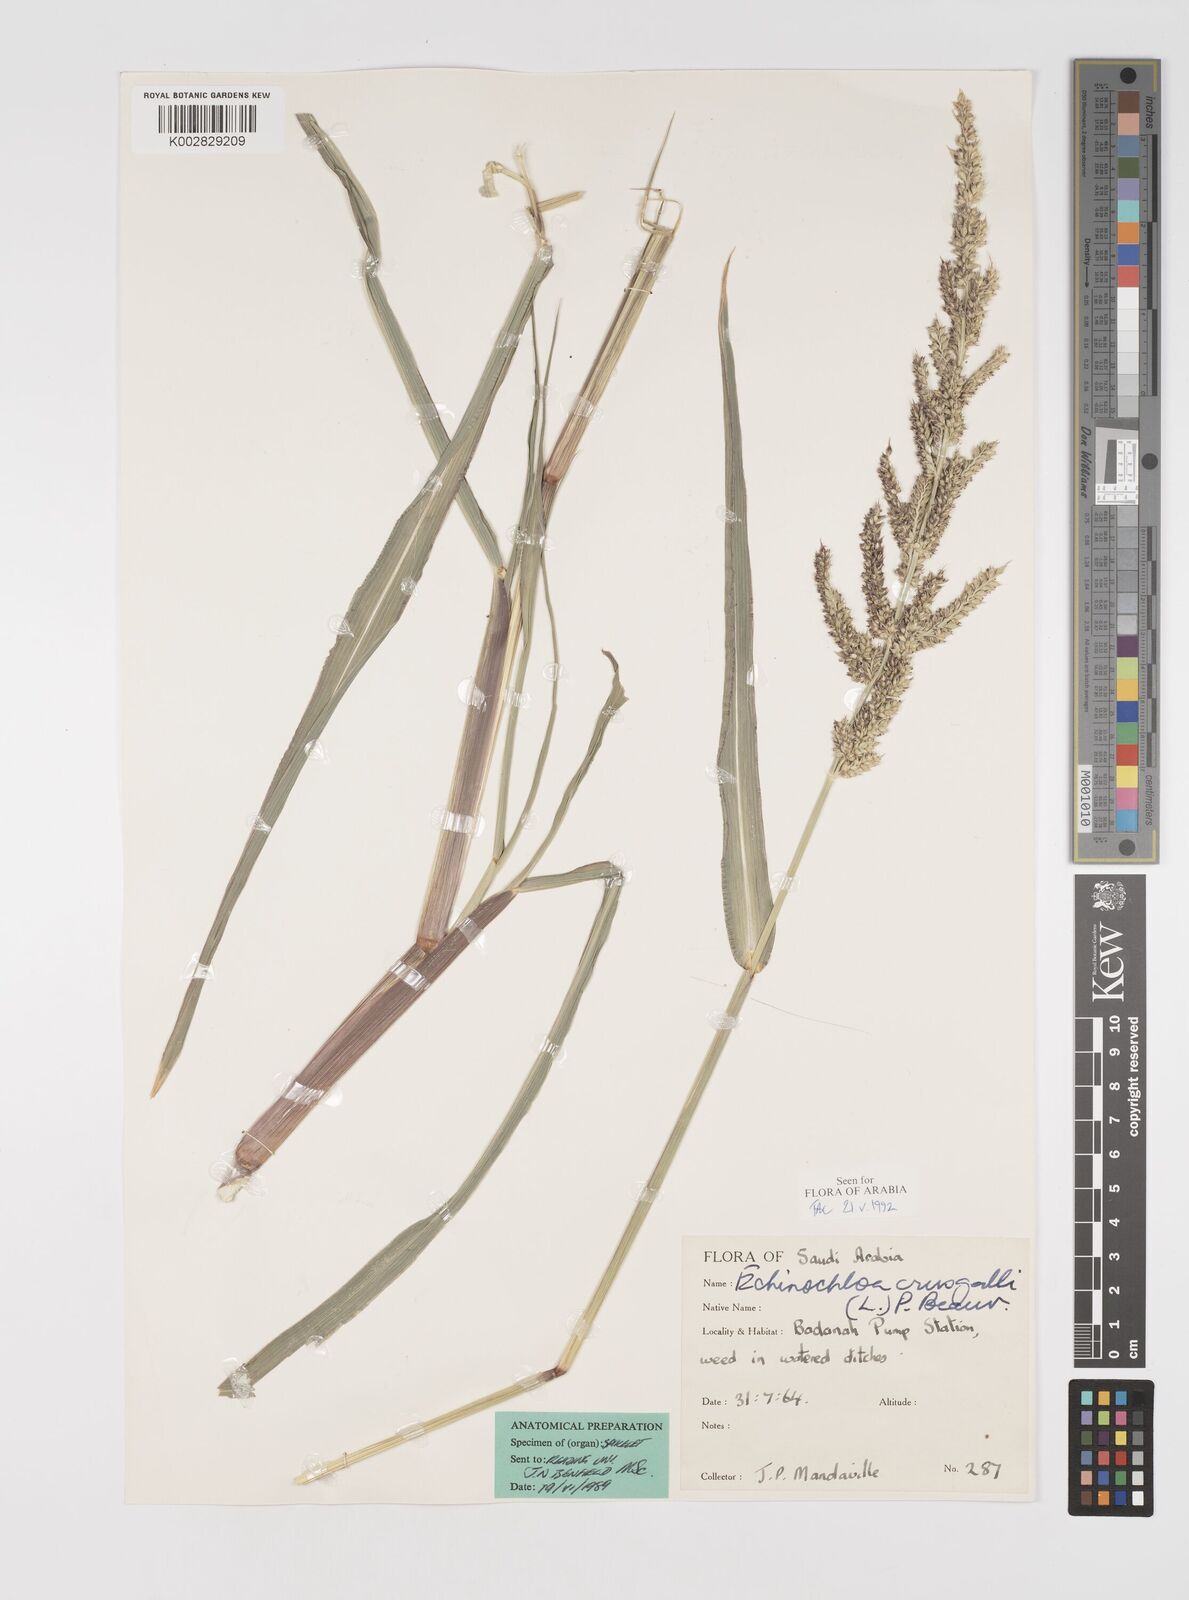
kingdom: Plantae
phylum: Tracheophyta
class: Liliopsida
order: Poales
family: Poaceae
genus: Echinochloa
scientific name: Echinochloa crus-galli
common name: Cockspur
